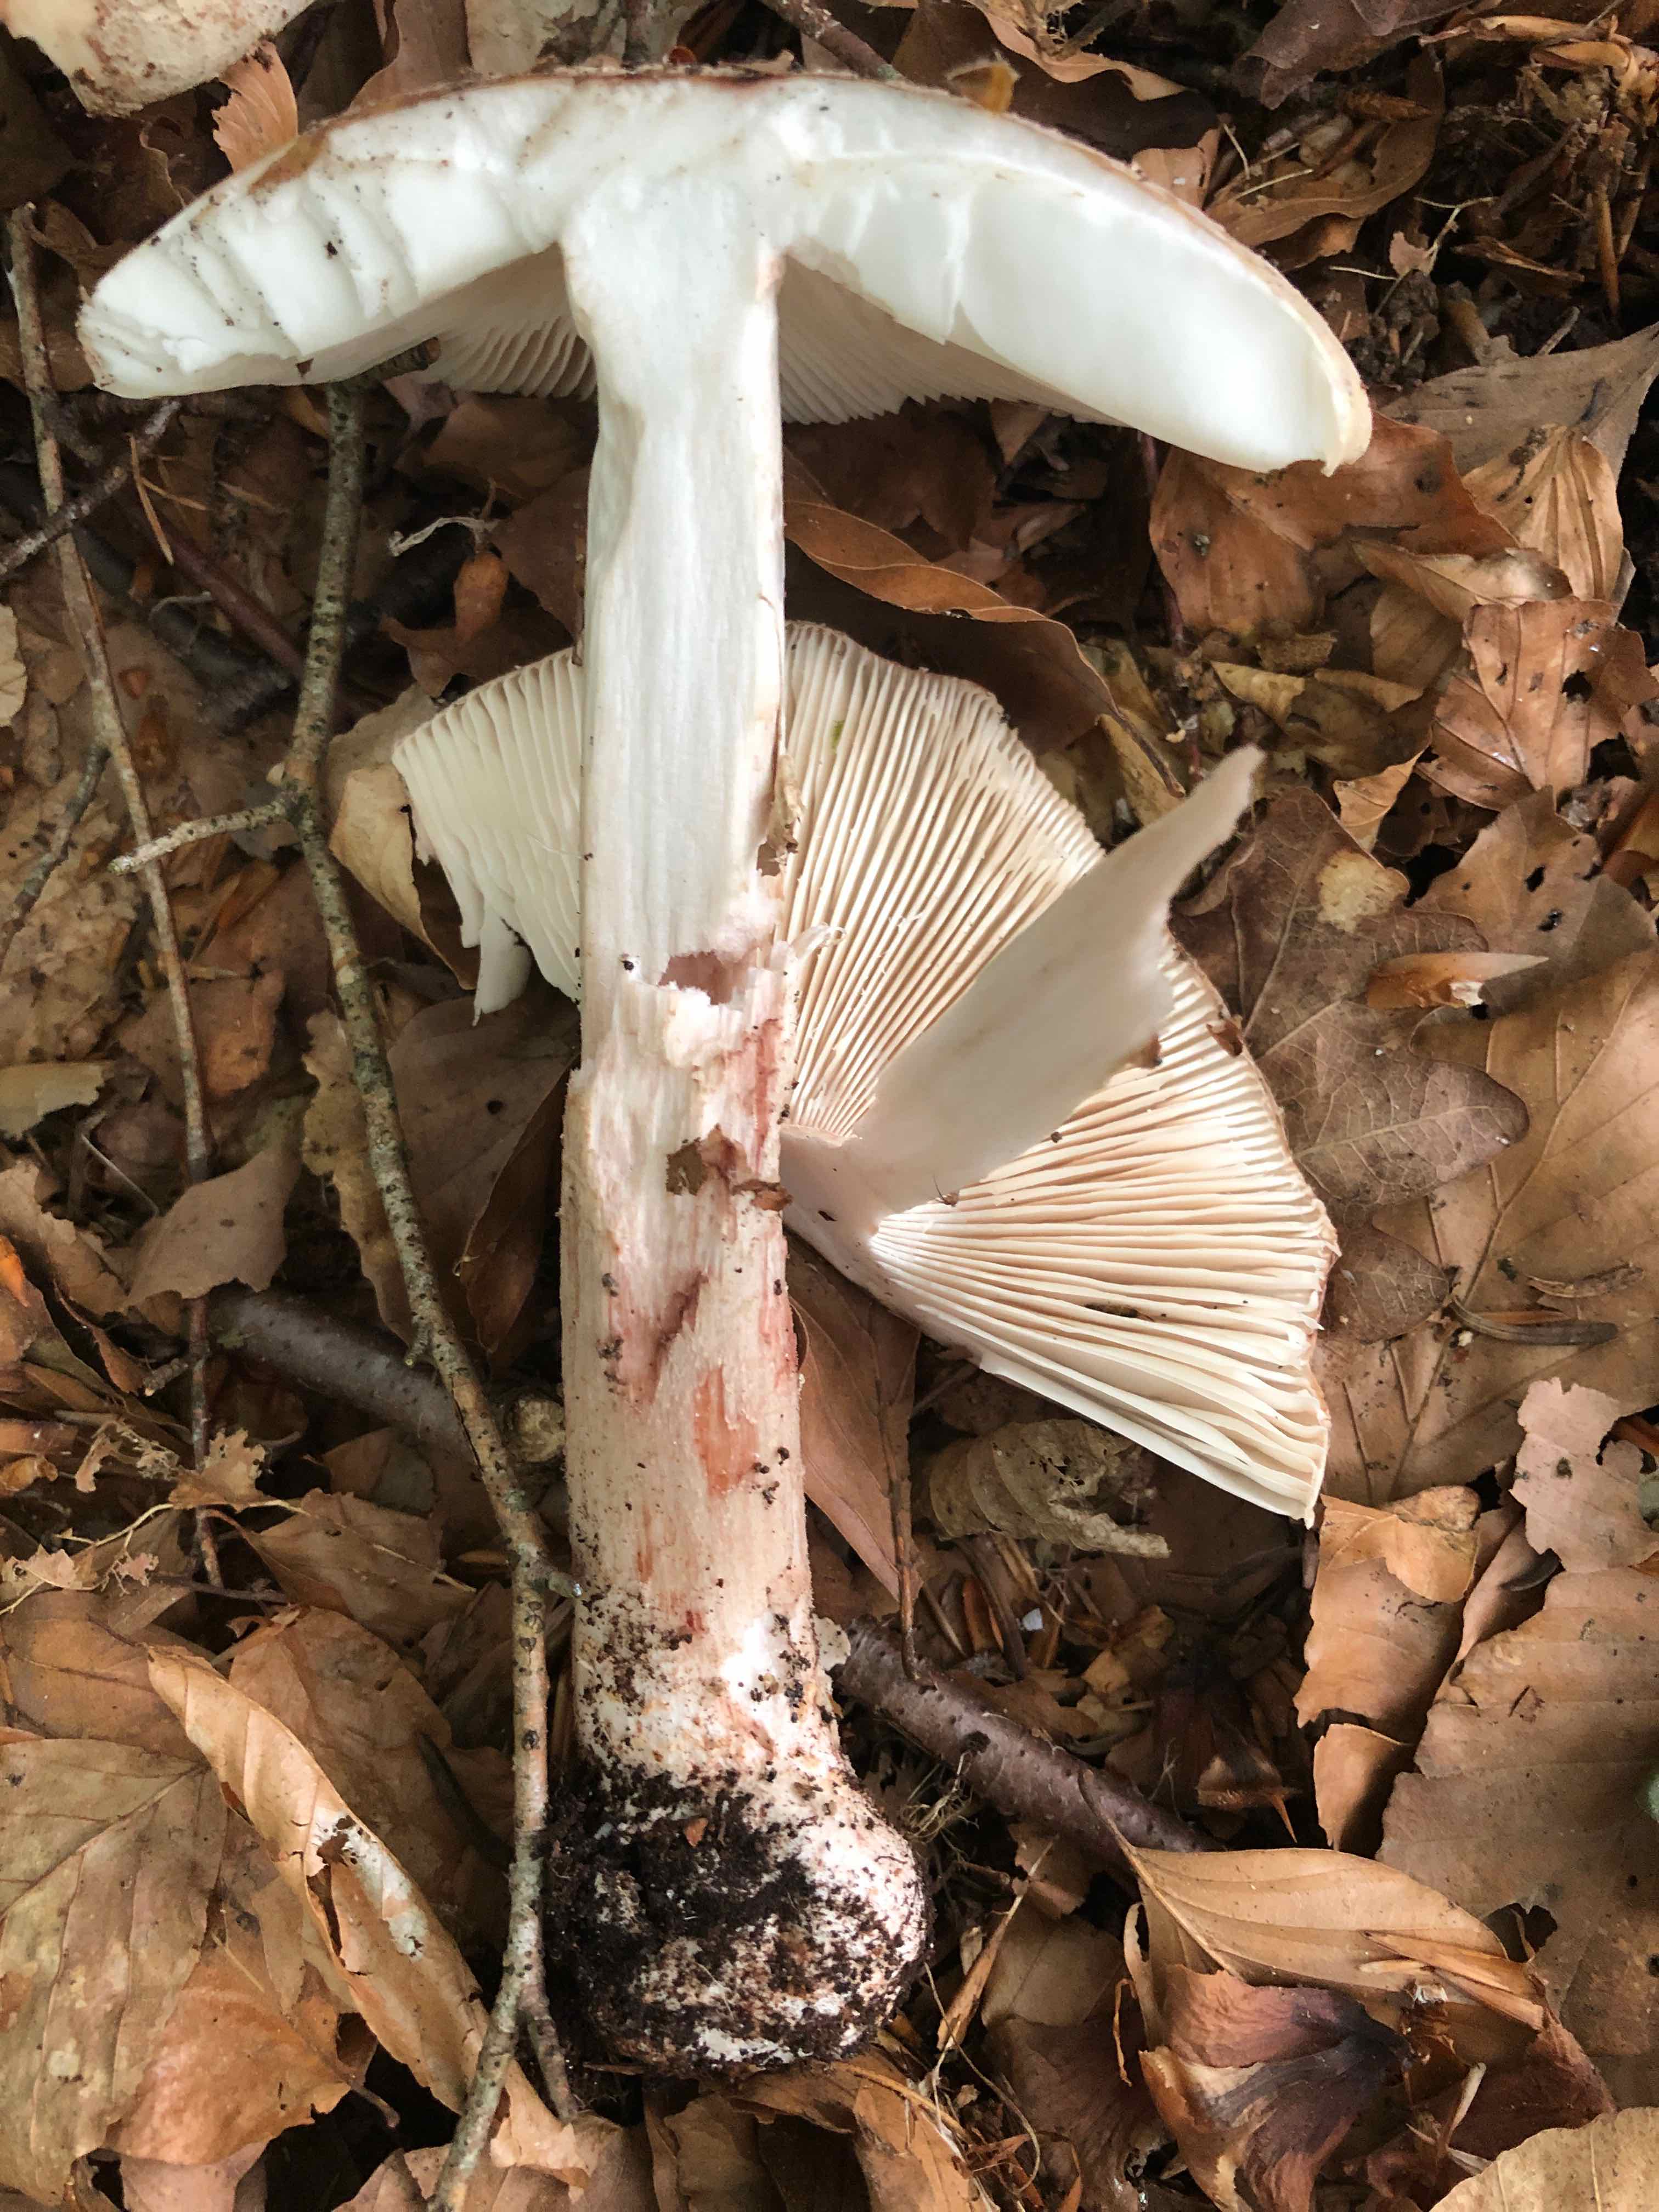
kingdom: Fungi
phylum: Basidiomycota
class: Agaricomycetes
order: Agaricales
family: Amanitaceae
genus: Amanita
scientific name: Amanita rubescens
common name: rødmende fluesvamp
